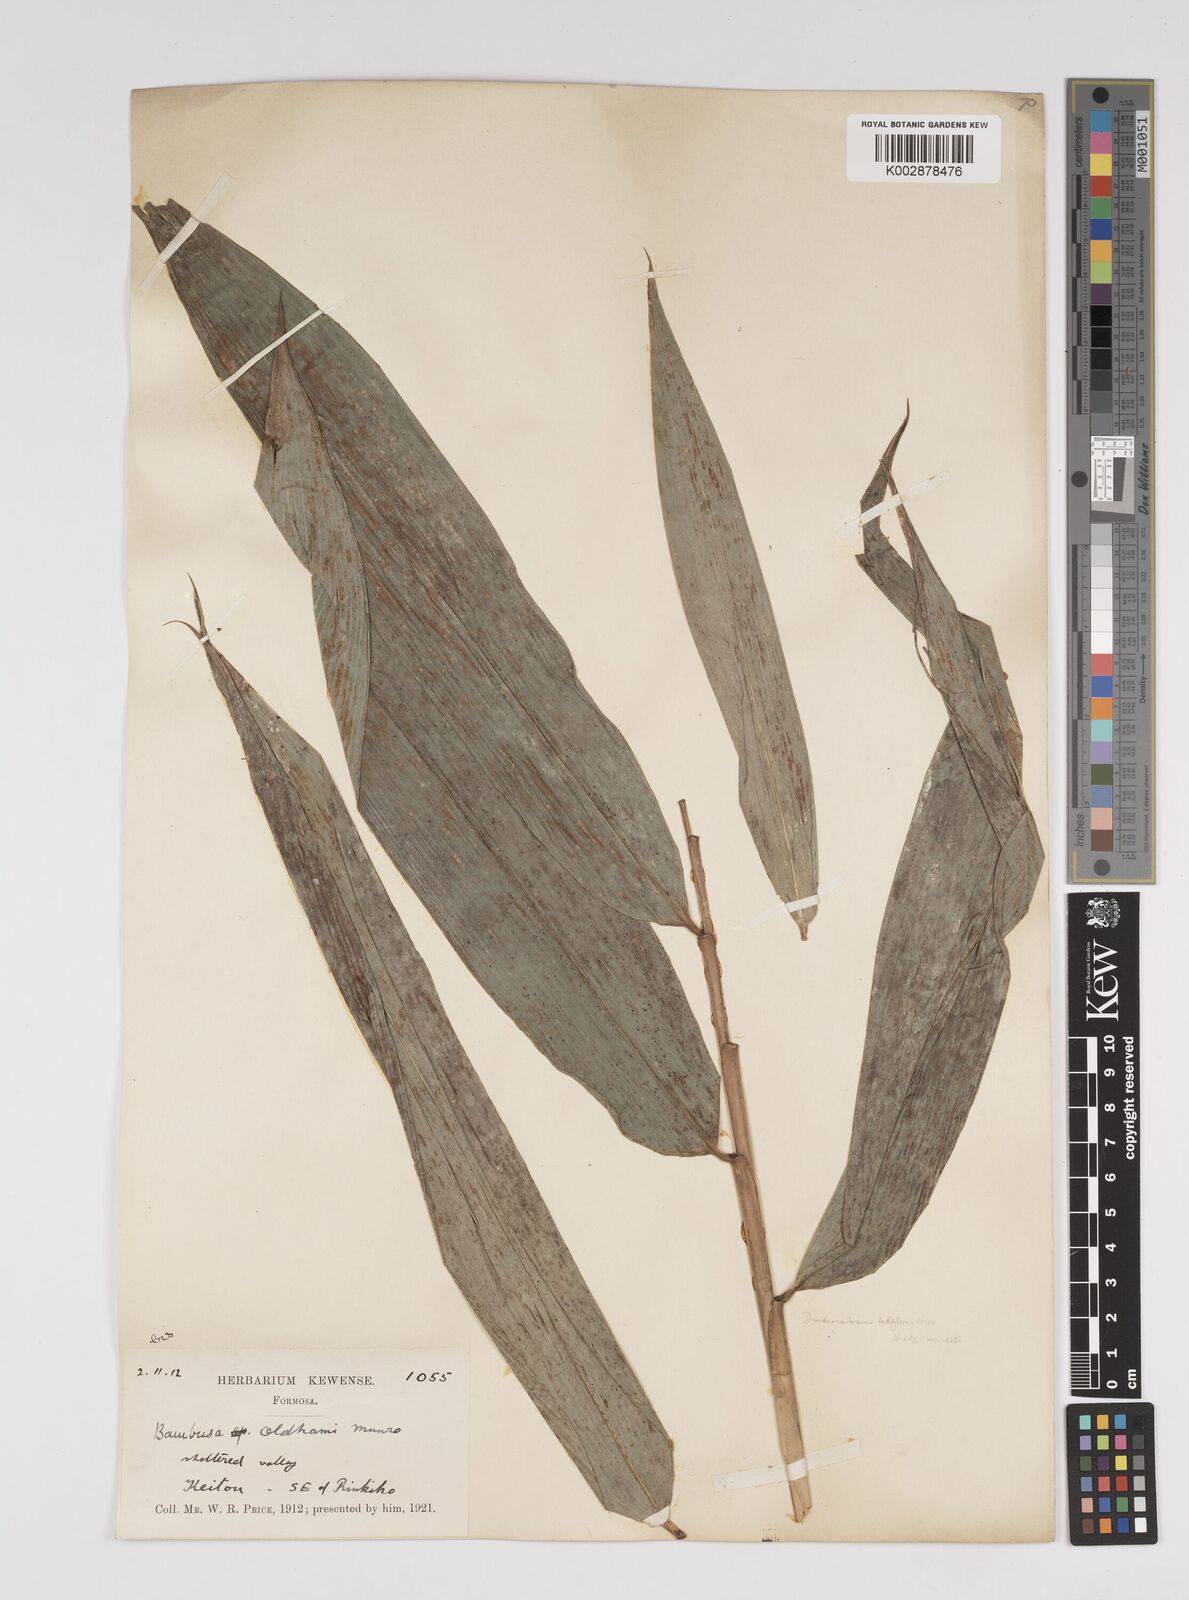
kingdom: Plantae
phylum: Tracheophyta
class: Liliopsida
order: Poales
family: Poaceae
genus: Dendrocalamus
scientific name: Dendrocalamus latiflorus
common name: Giant bamboo
